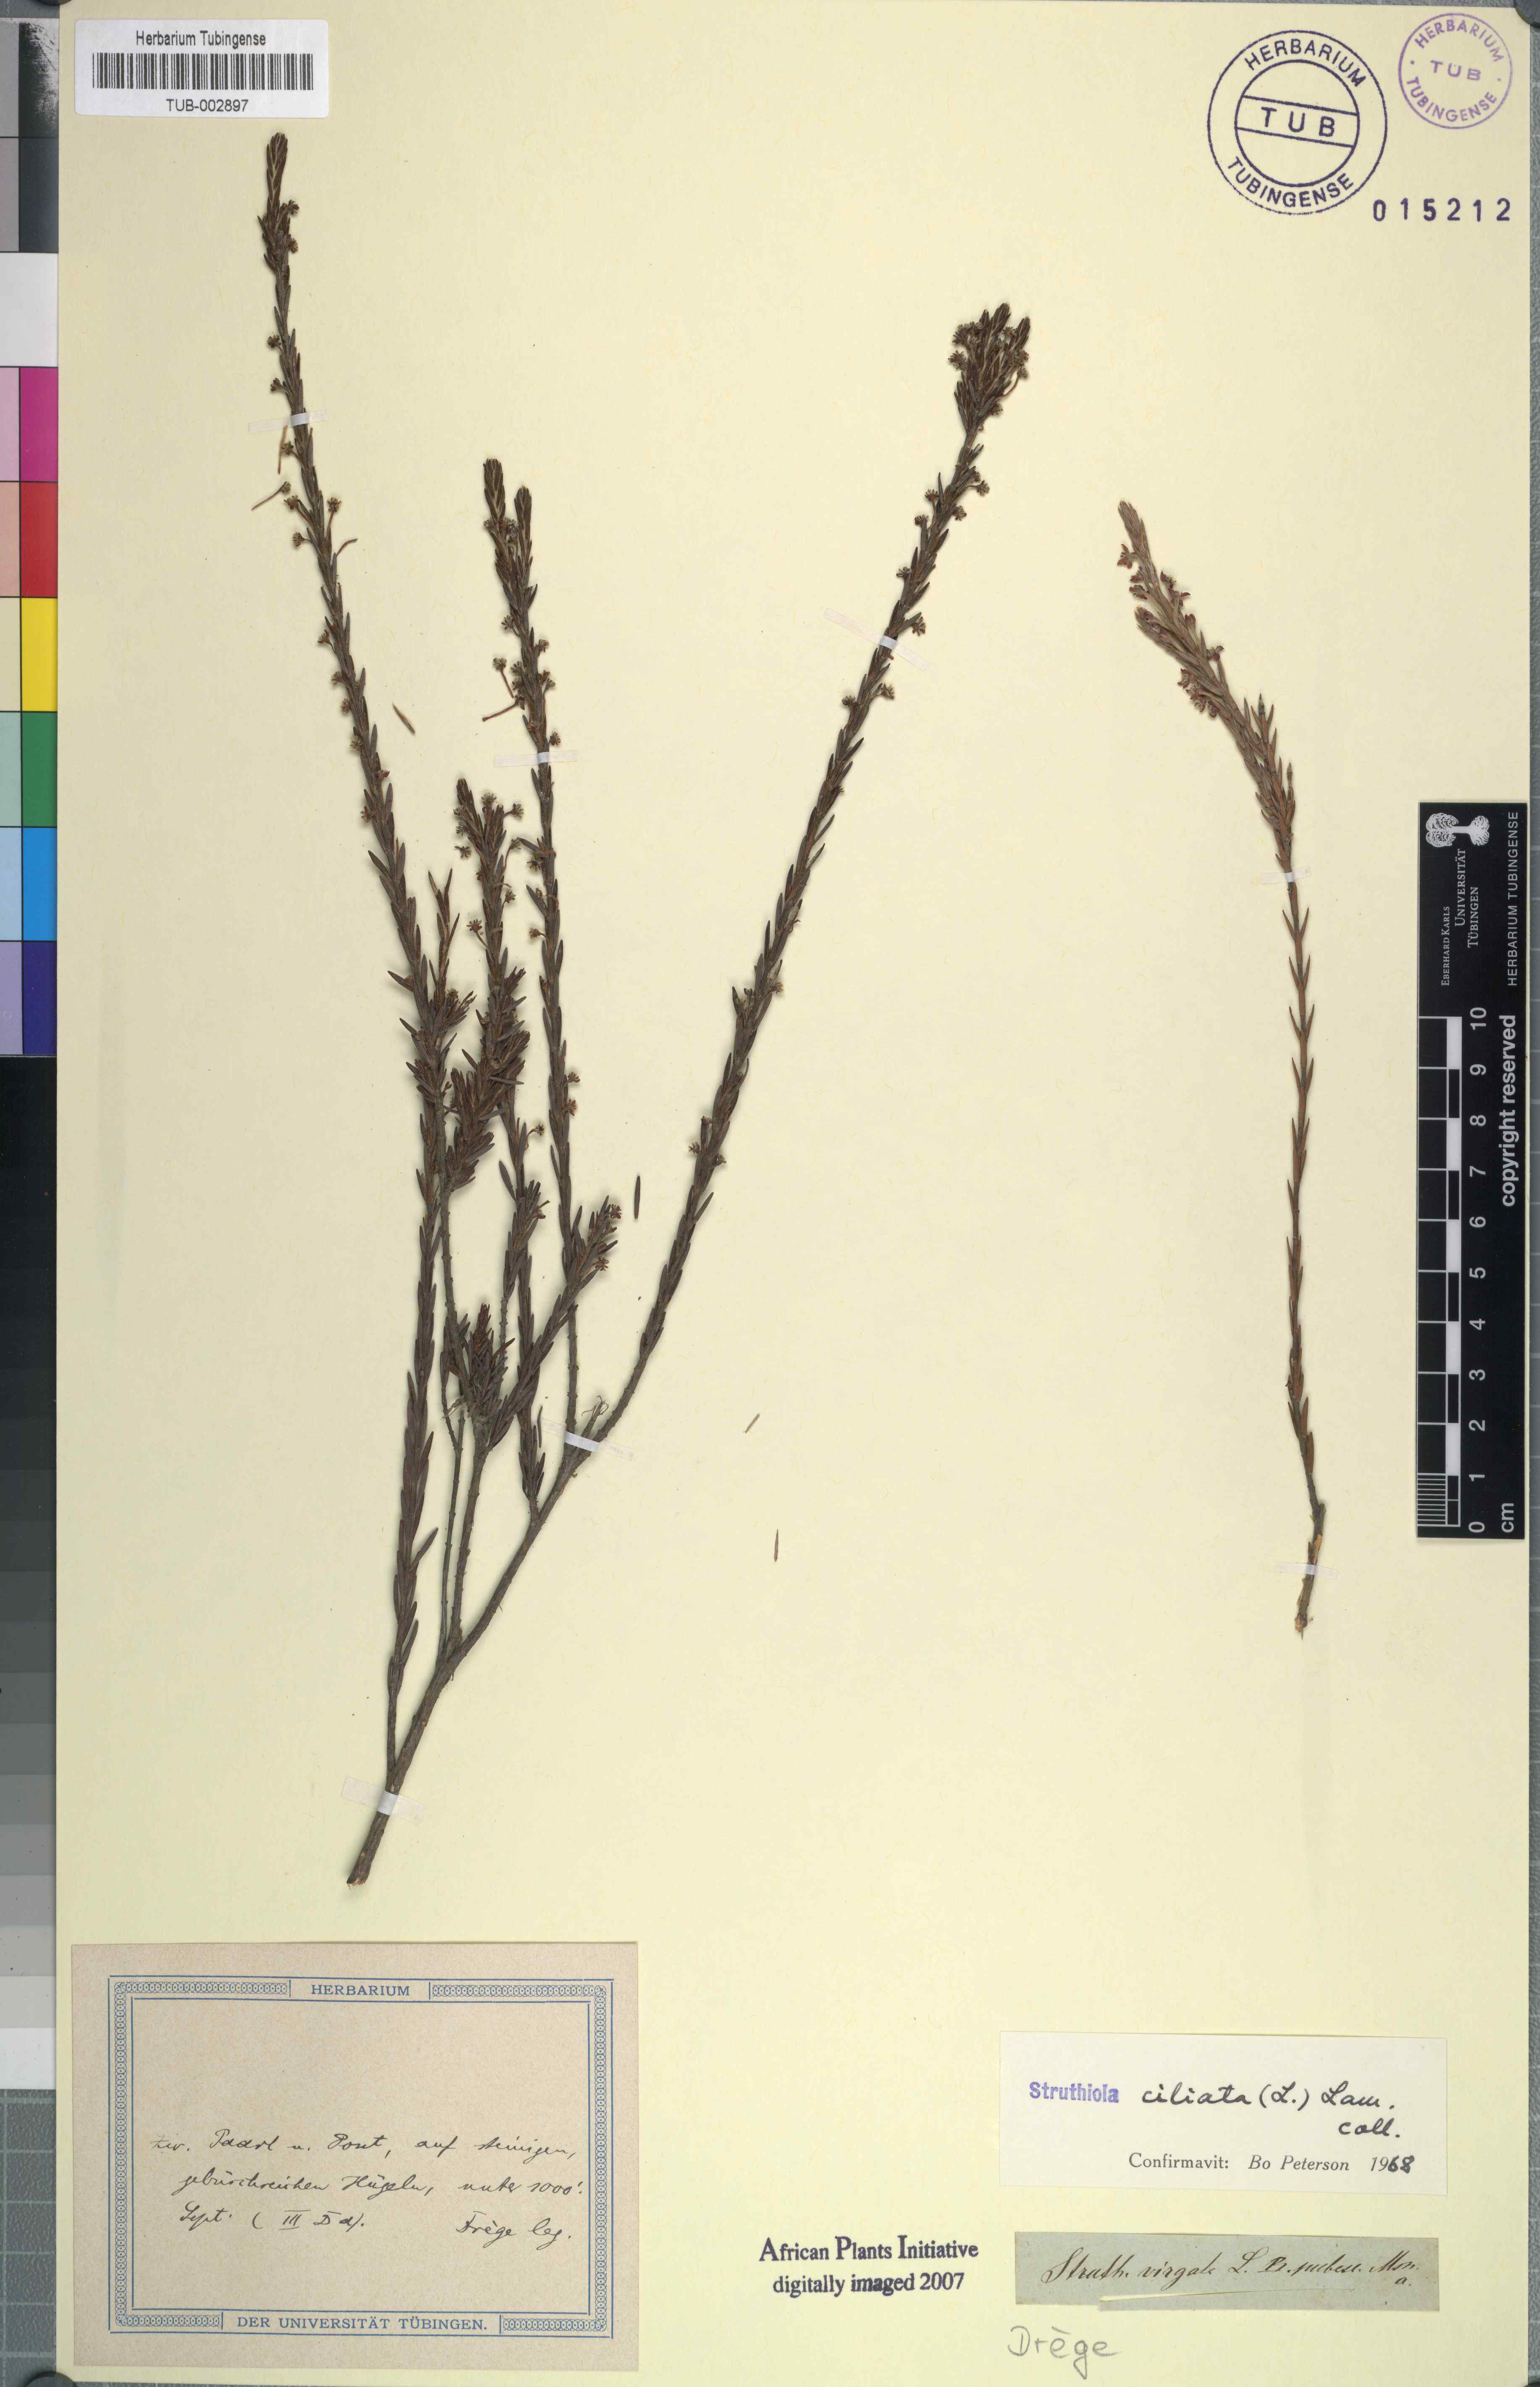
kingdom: Plantae
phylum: Tracheophyta
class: Magnoliopsida
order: Malvales
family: Thymelaeaceae
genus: Struthiola
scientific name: Struthiola ciliata
